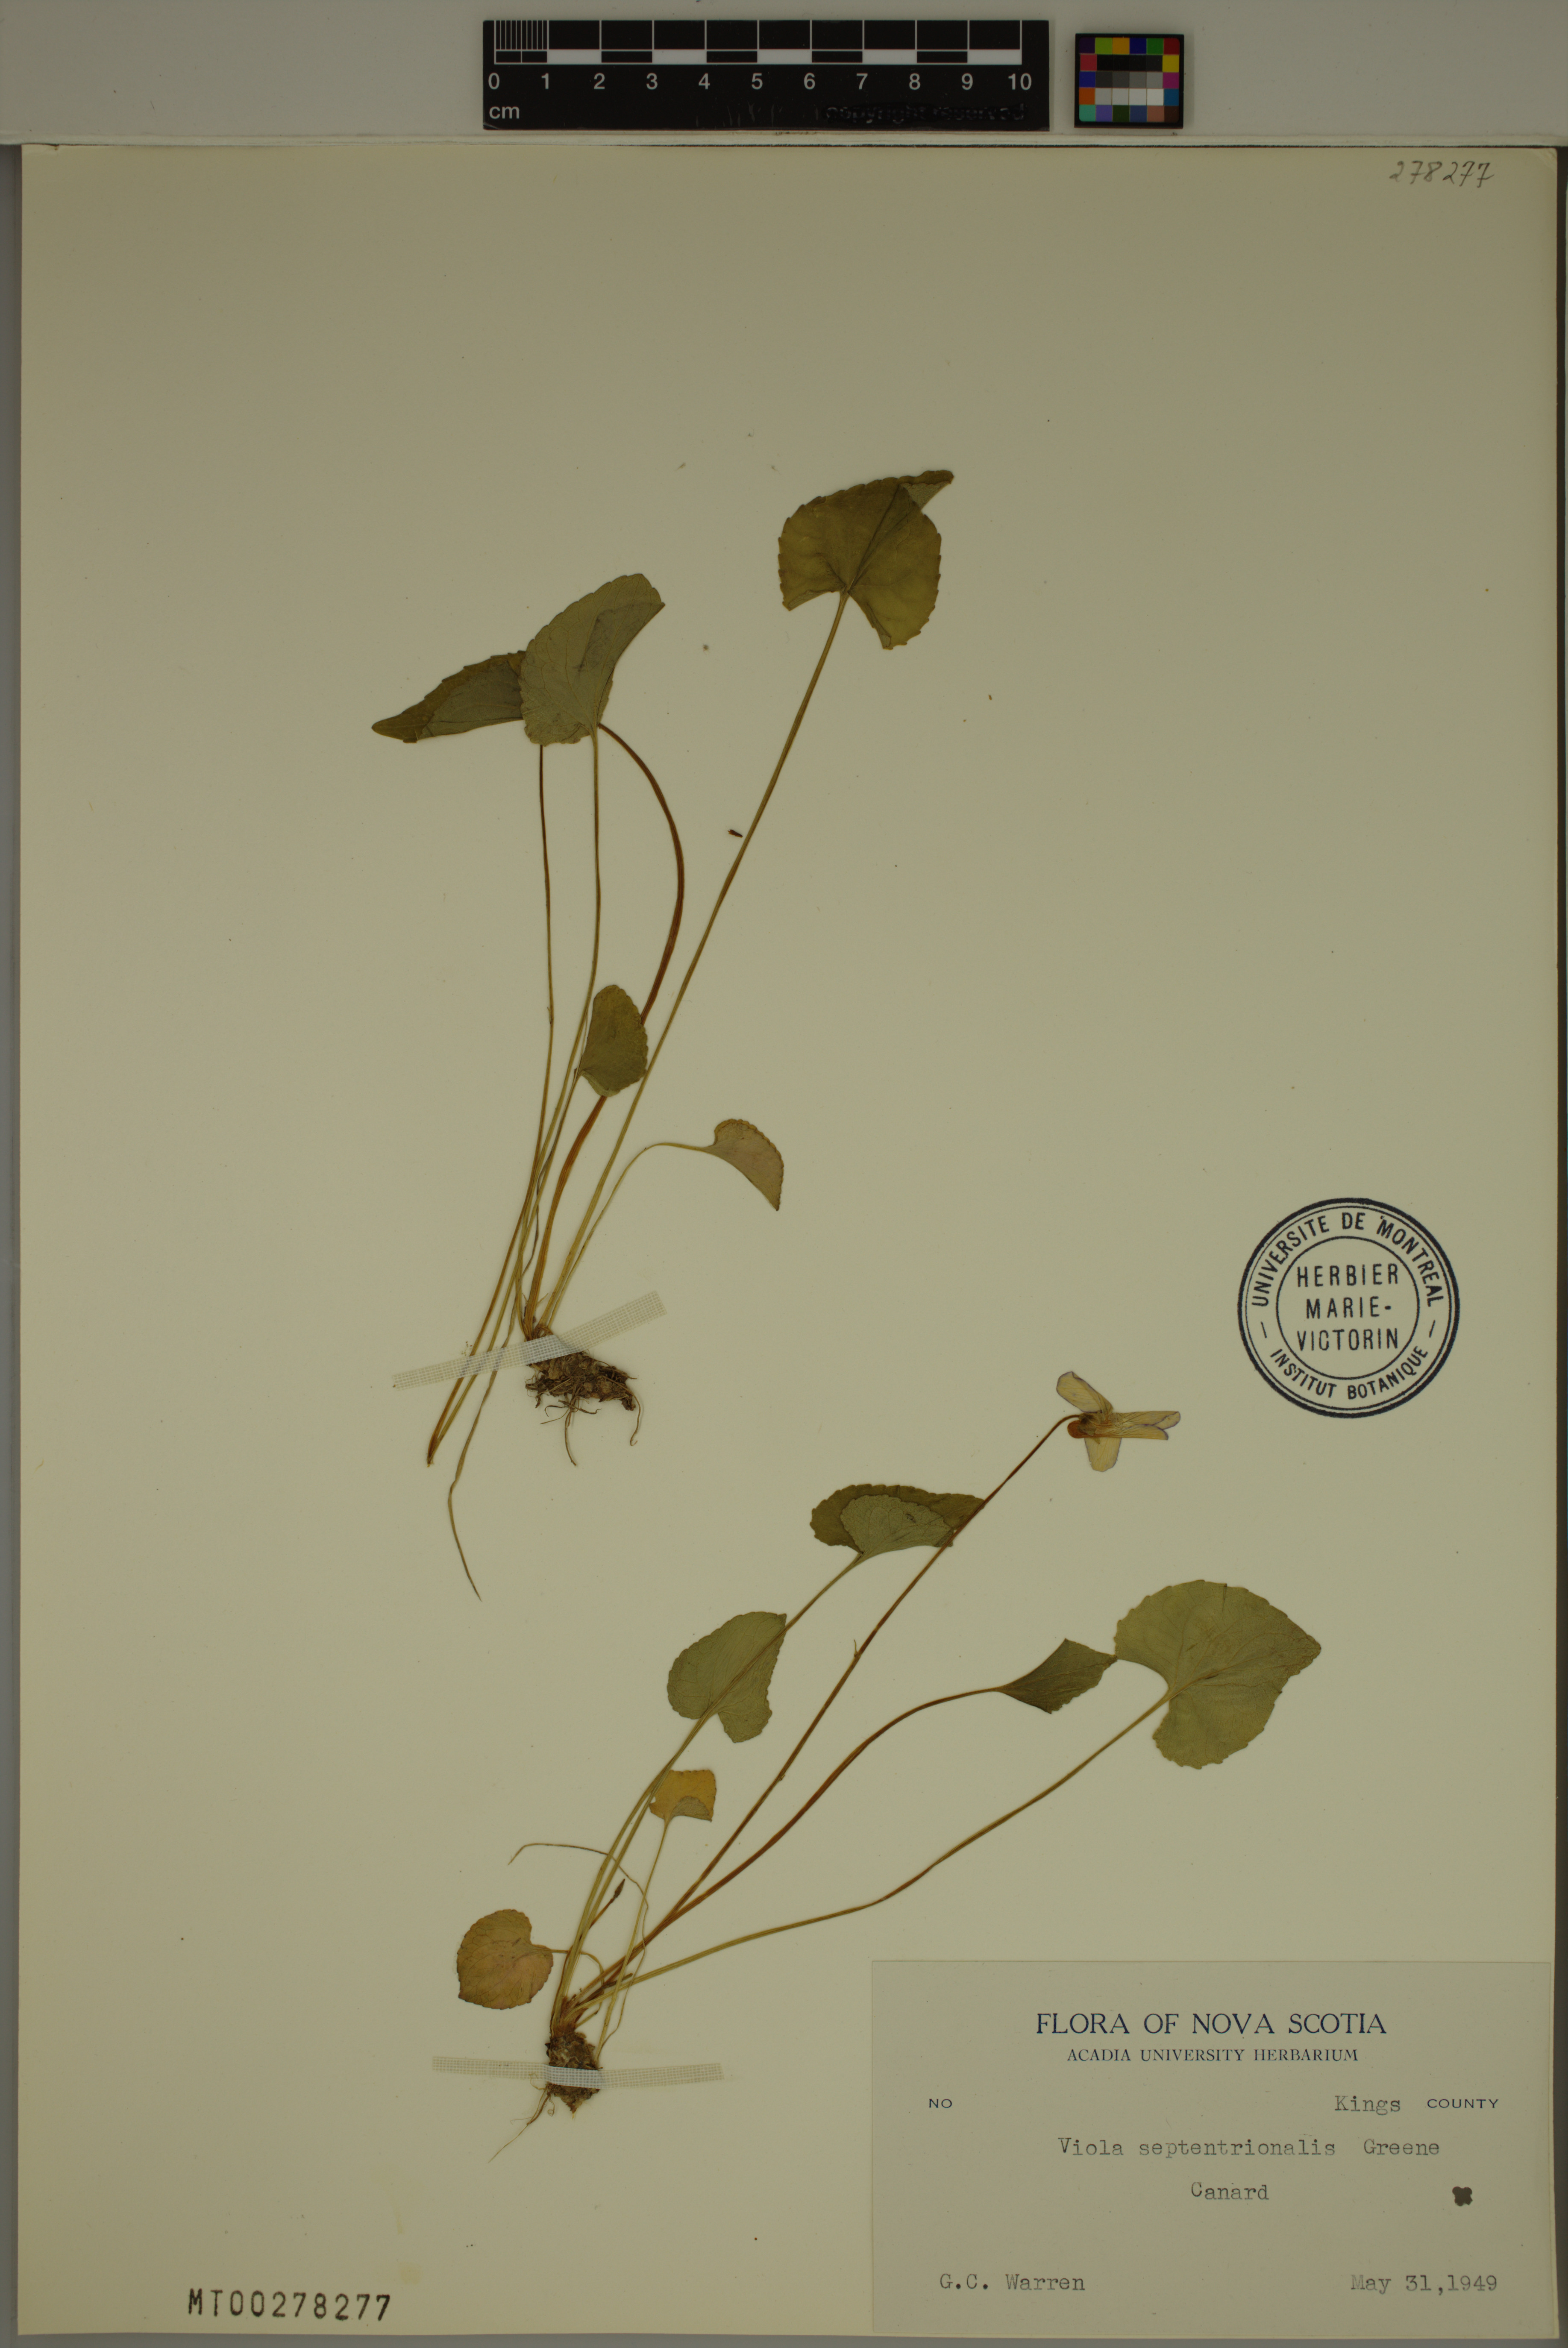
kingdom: Plantae
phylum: Tracheophyta
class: Magnoliopsida
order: Malpighiales
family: Violaceae
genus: Viola
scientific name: Viola septentrionalis
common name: Northern woodland violet
